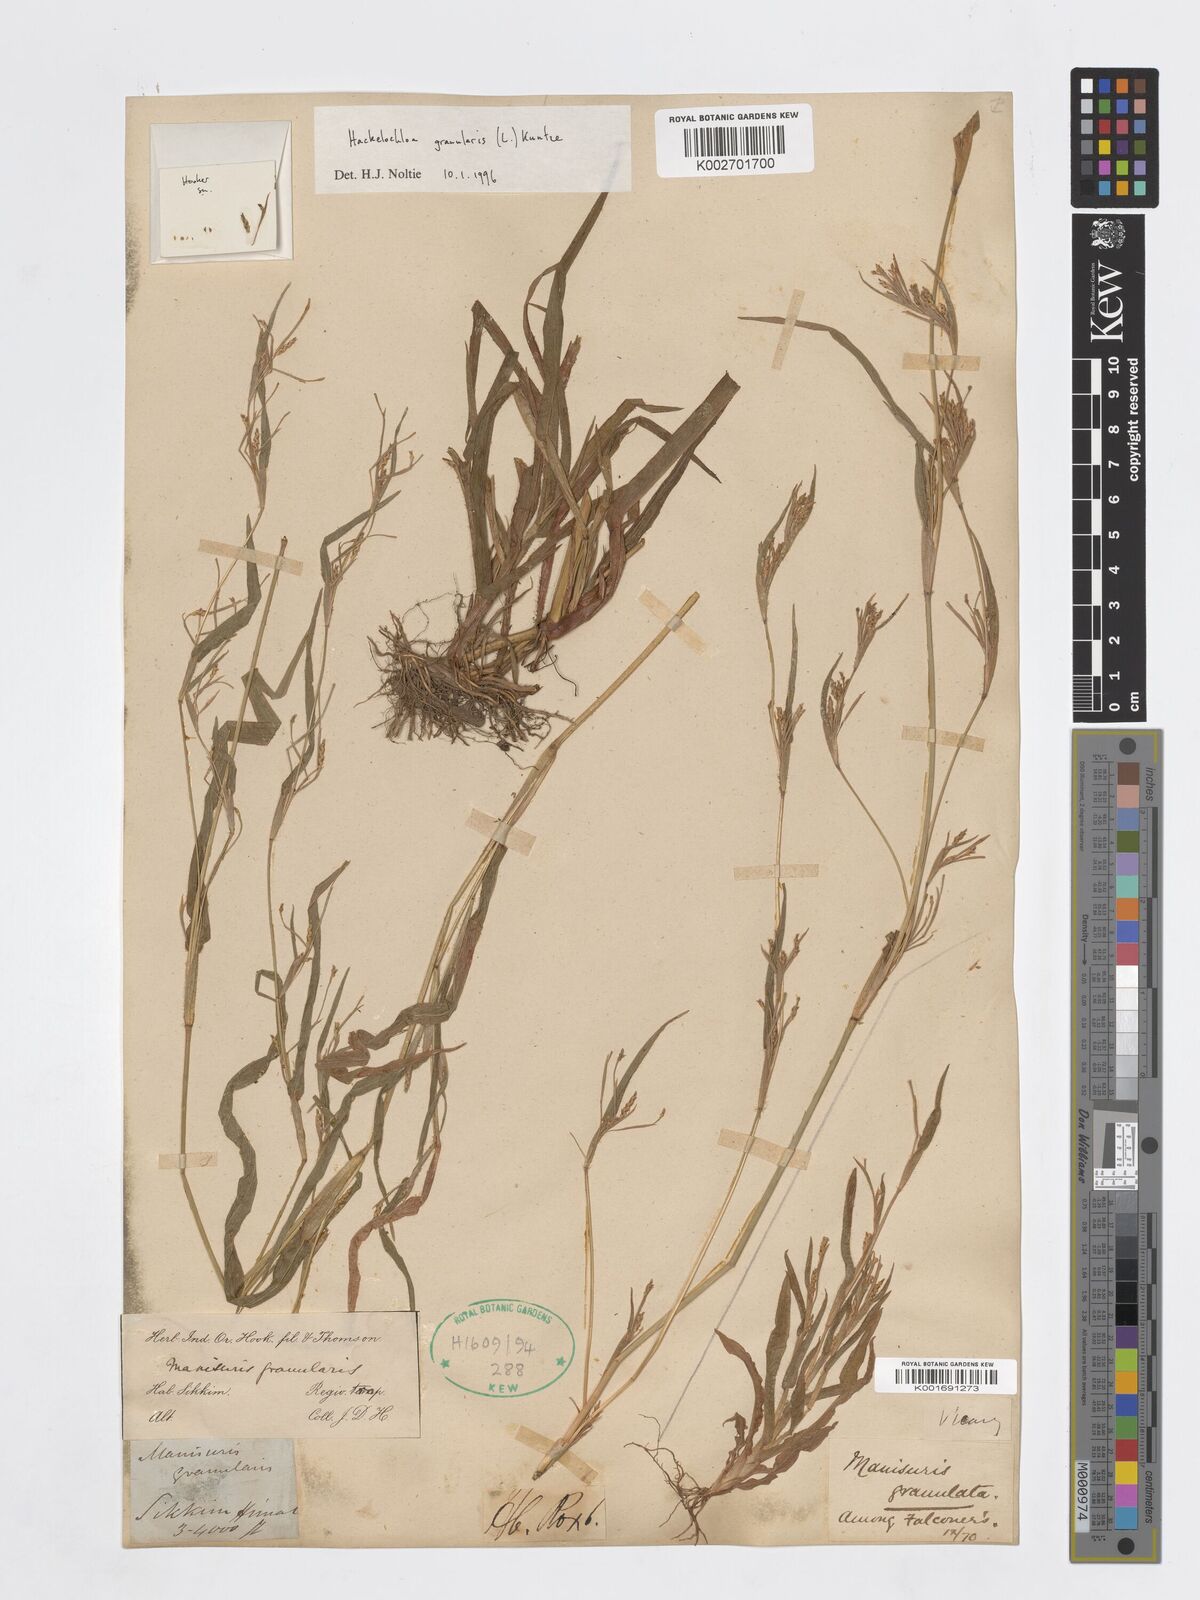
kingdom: Plantae
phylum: Tracheophyta
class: Liliopsida
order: Poales
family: Poaceae
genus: Hackelochloa
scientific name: Hackelochloa granularis
